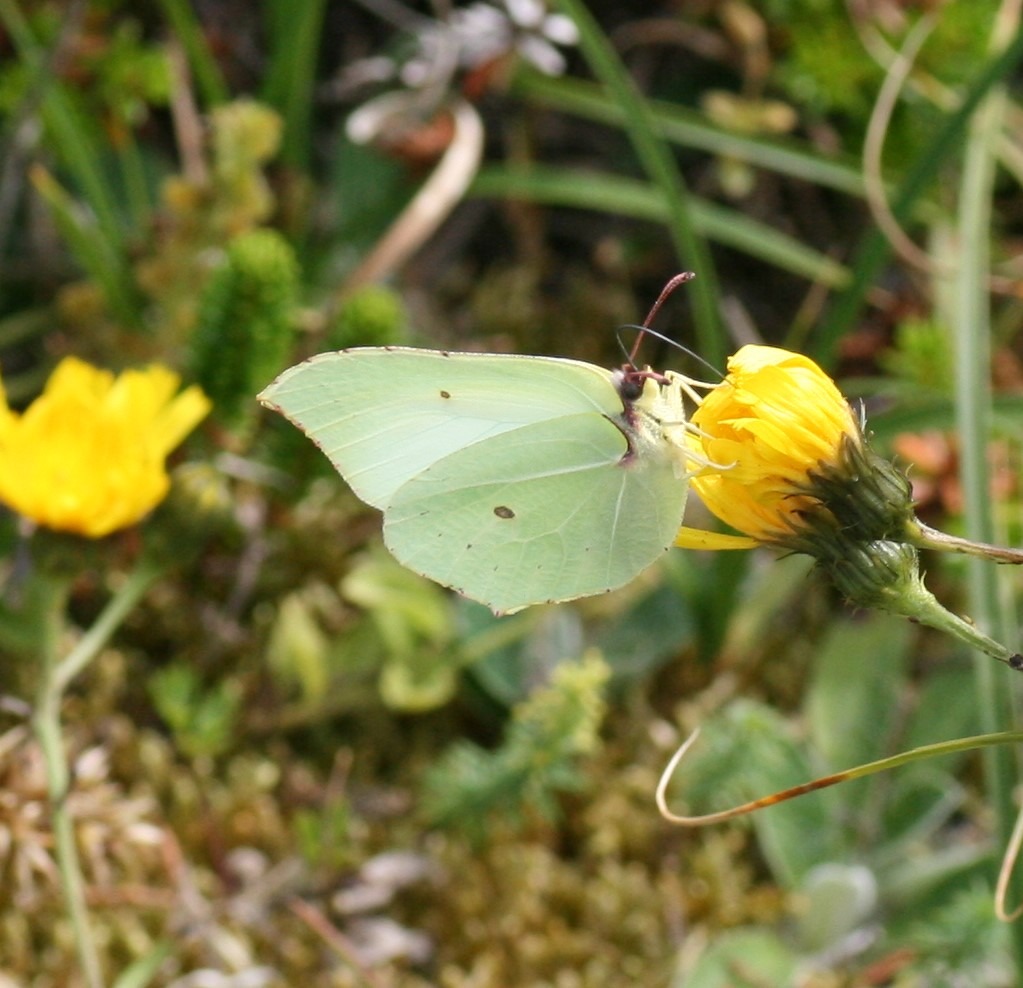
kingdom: Animalia
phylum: Arthropoda
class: Insecta
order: Lepidoptera
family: Pieridae
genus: Gonepteryx
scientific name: Gonepteryx rhamni
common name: Citronsommerfugl
